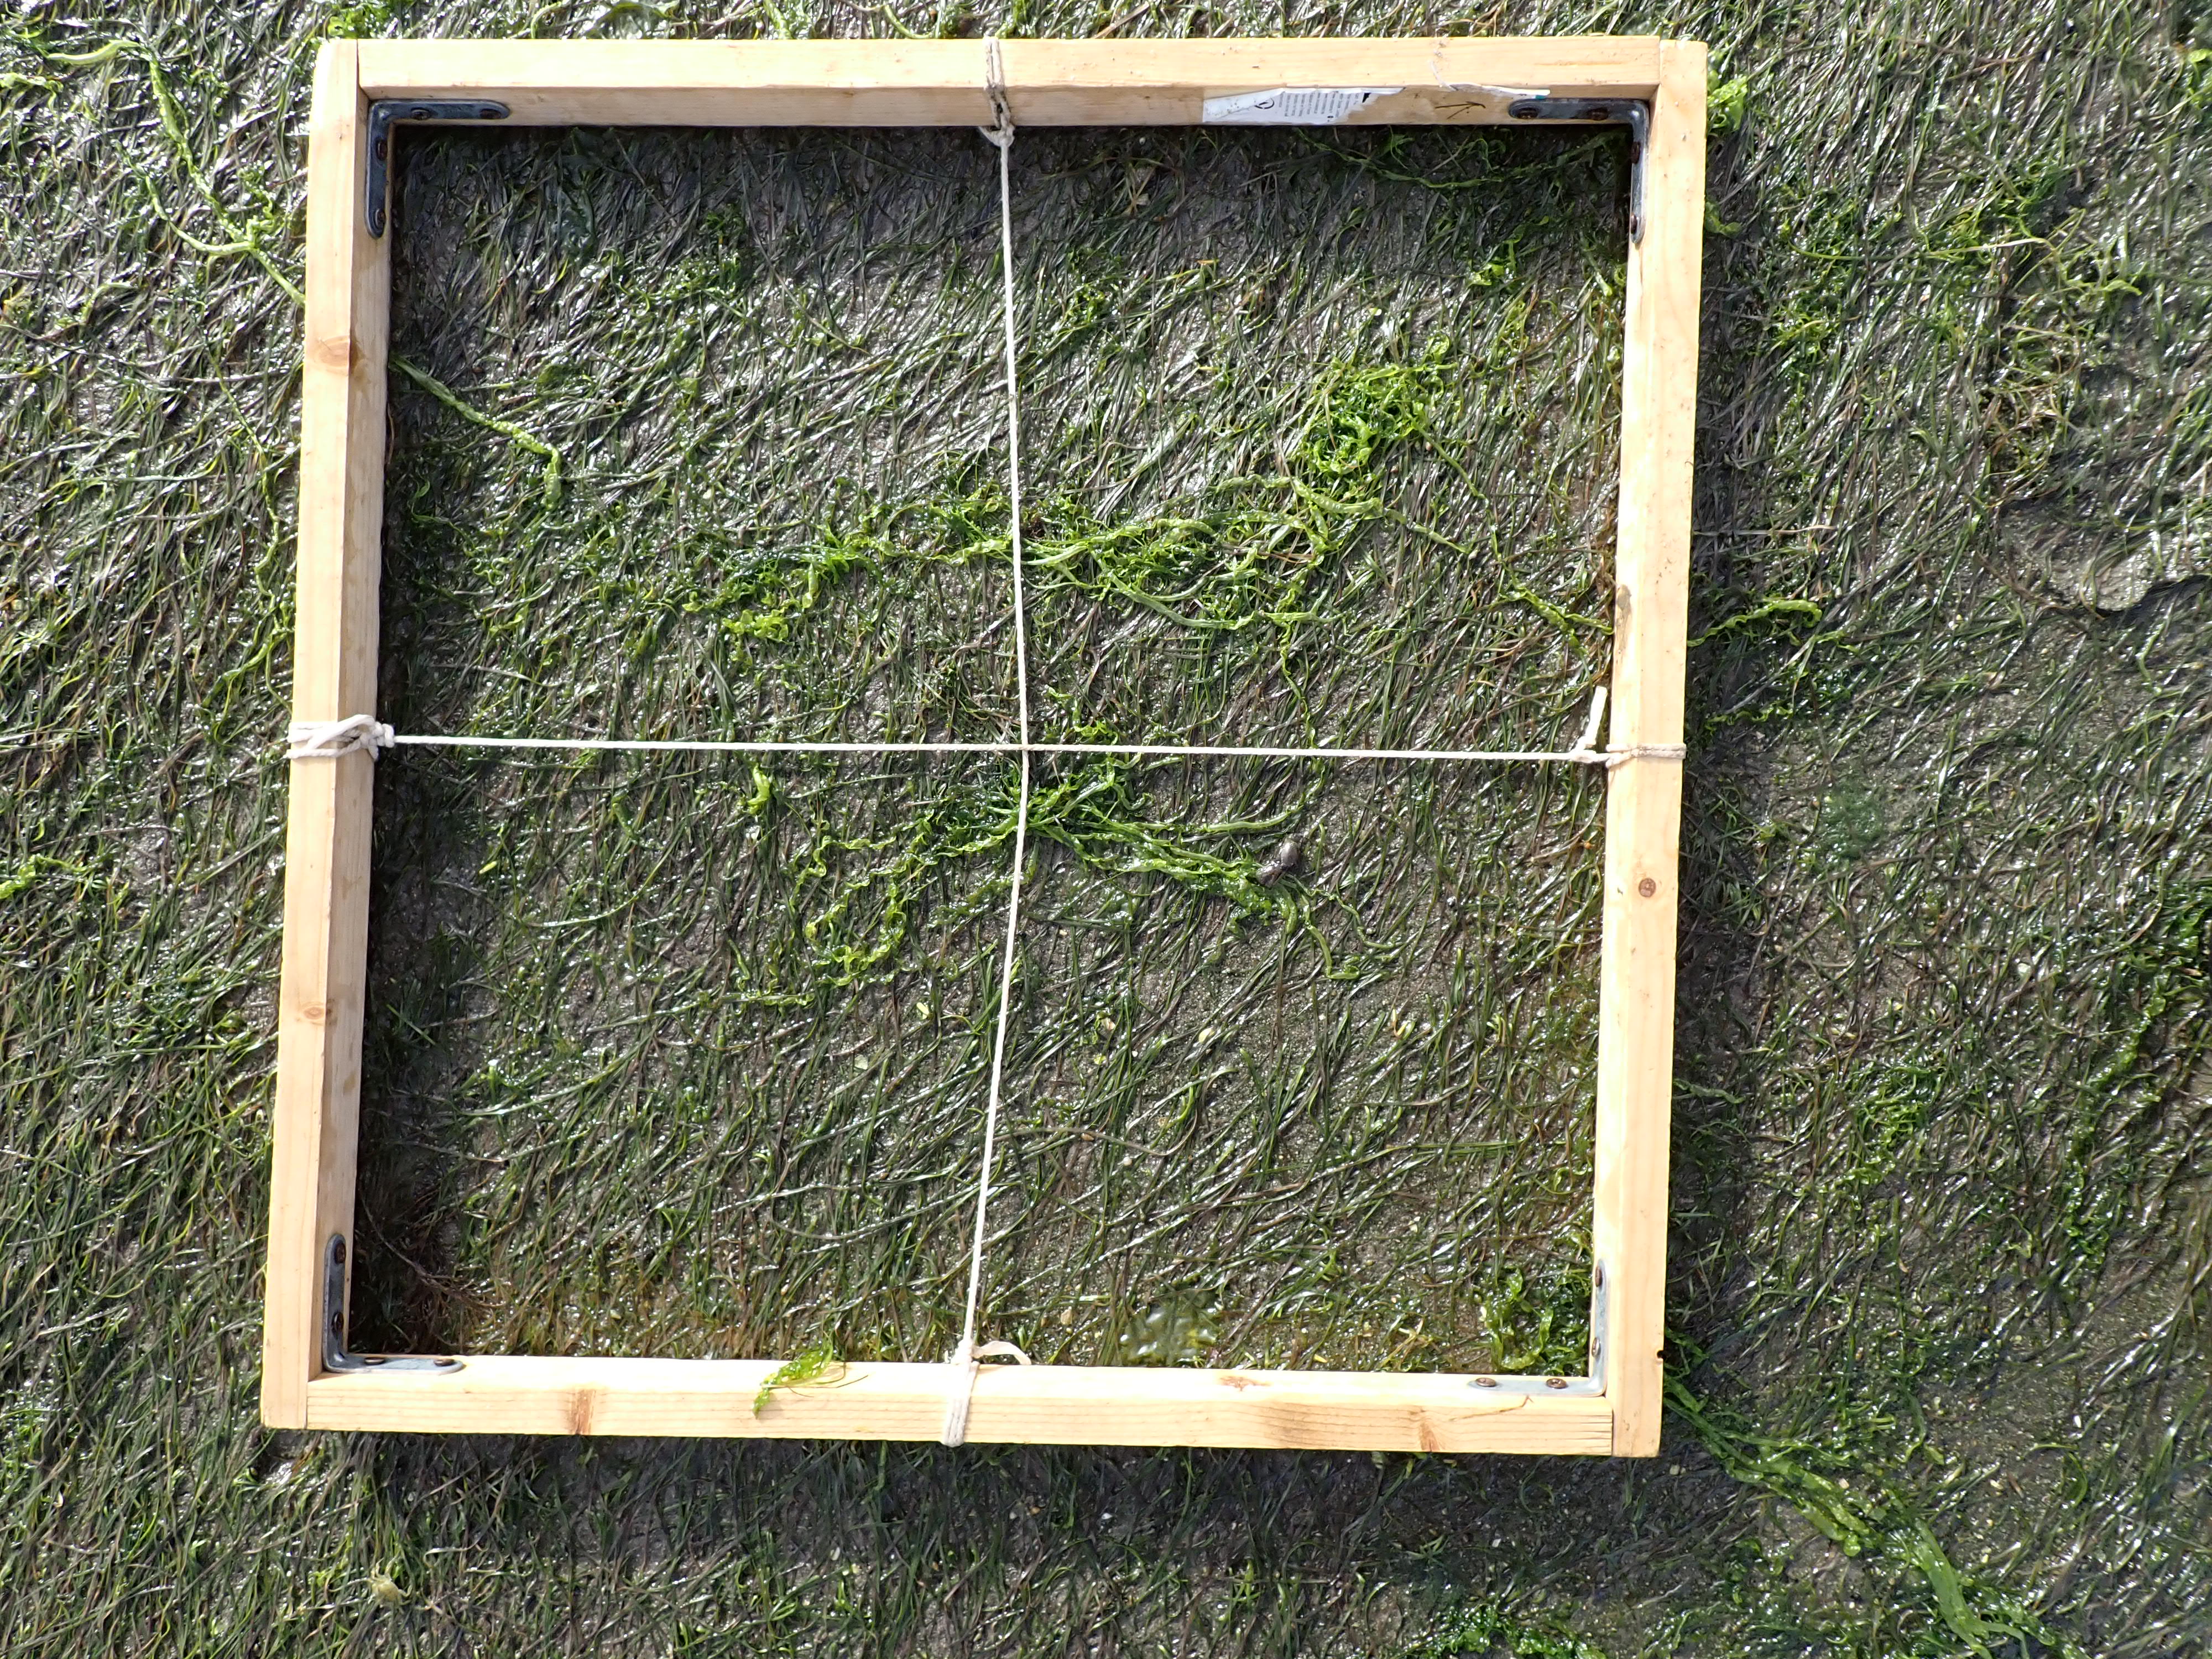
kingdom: Plantae
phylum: Chlorophyta
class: Ulvophyceae
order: Ulvales
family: Ulvaceae
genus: Ulva
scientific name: Ulva
